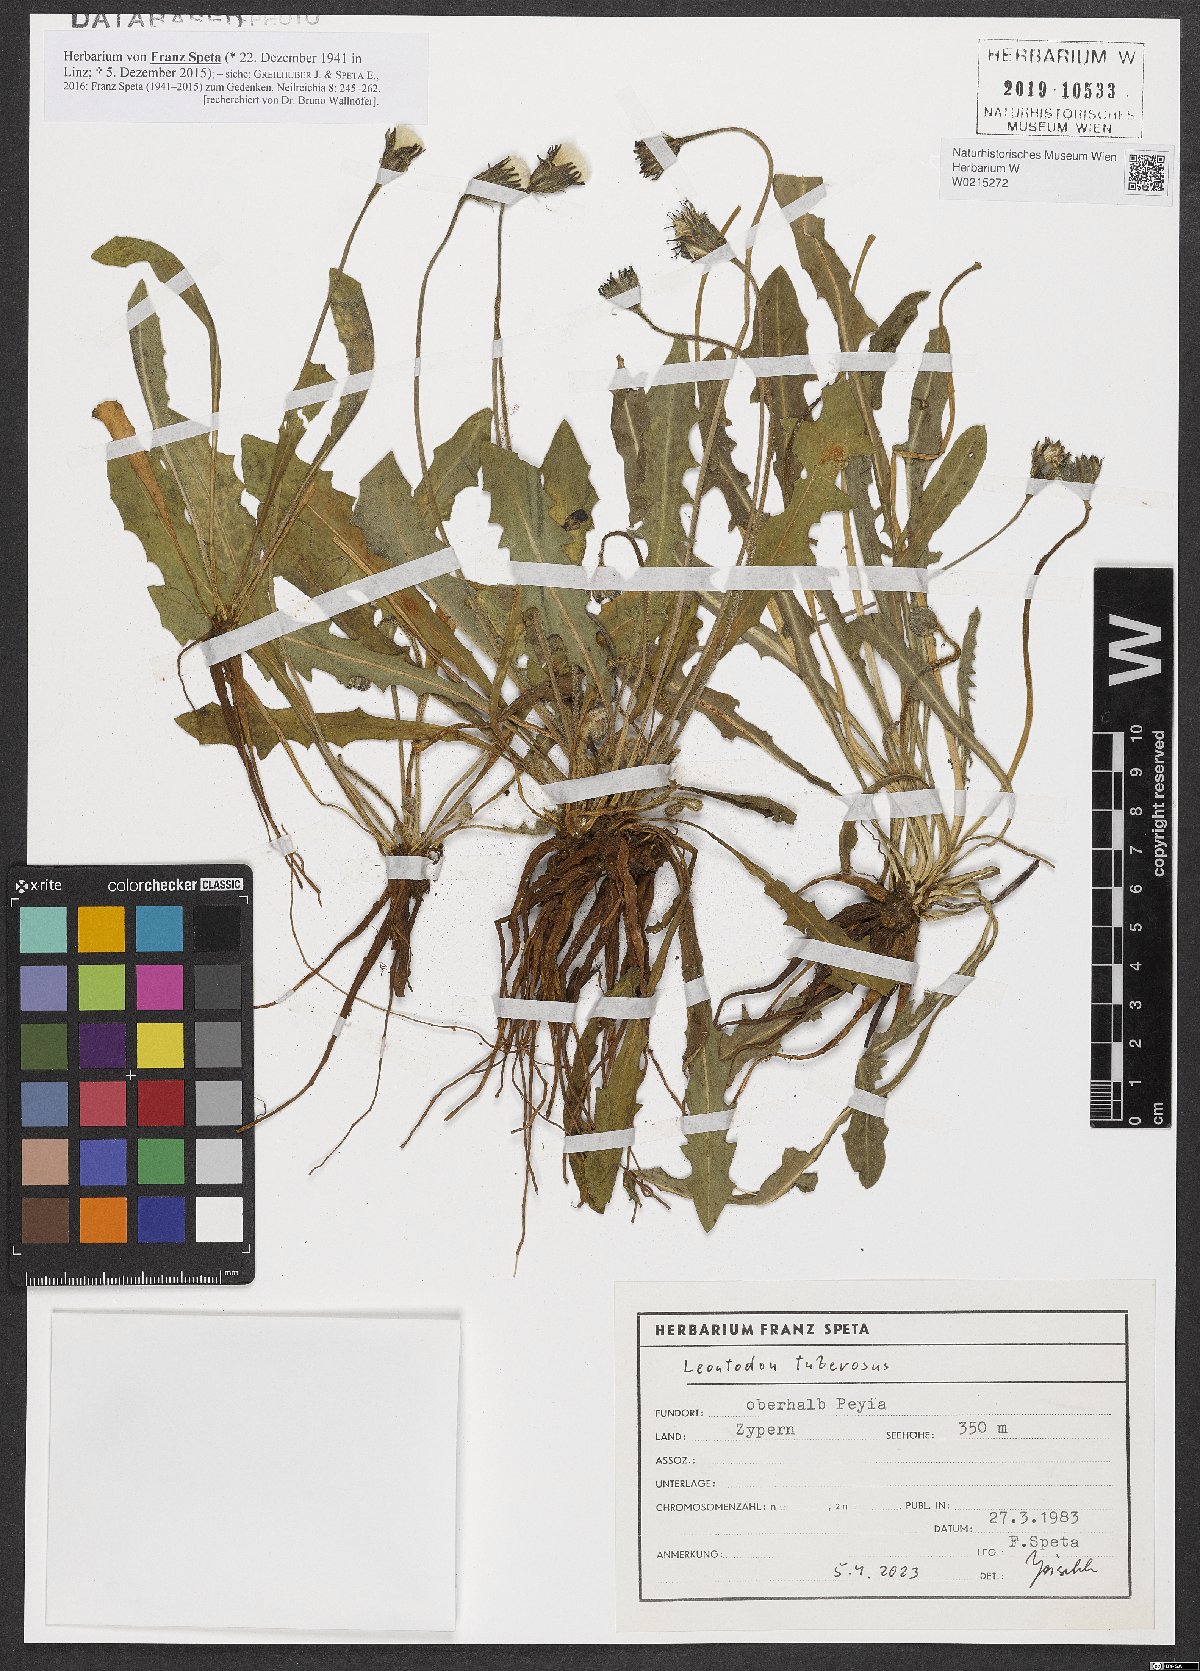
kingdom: Plantae
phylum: Tracheophyta
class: Magnoliopsida
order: Asterales
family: Asteraceae
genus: Thrincia
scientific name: Thrincia tuberosa
